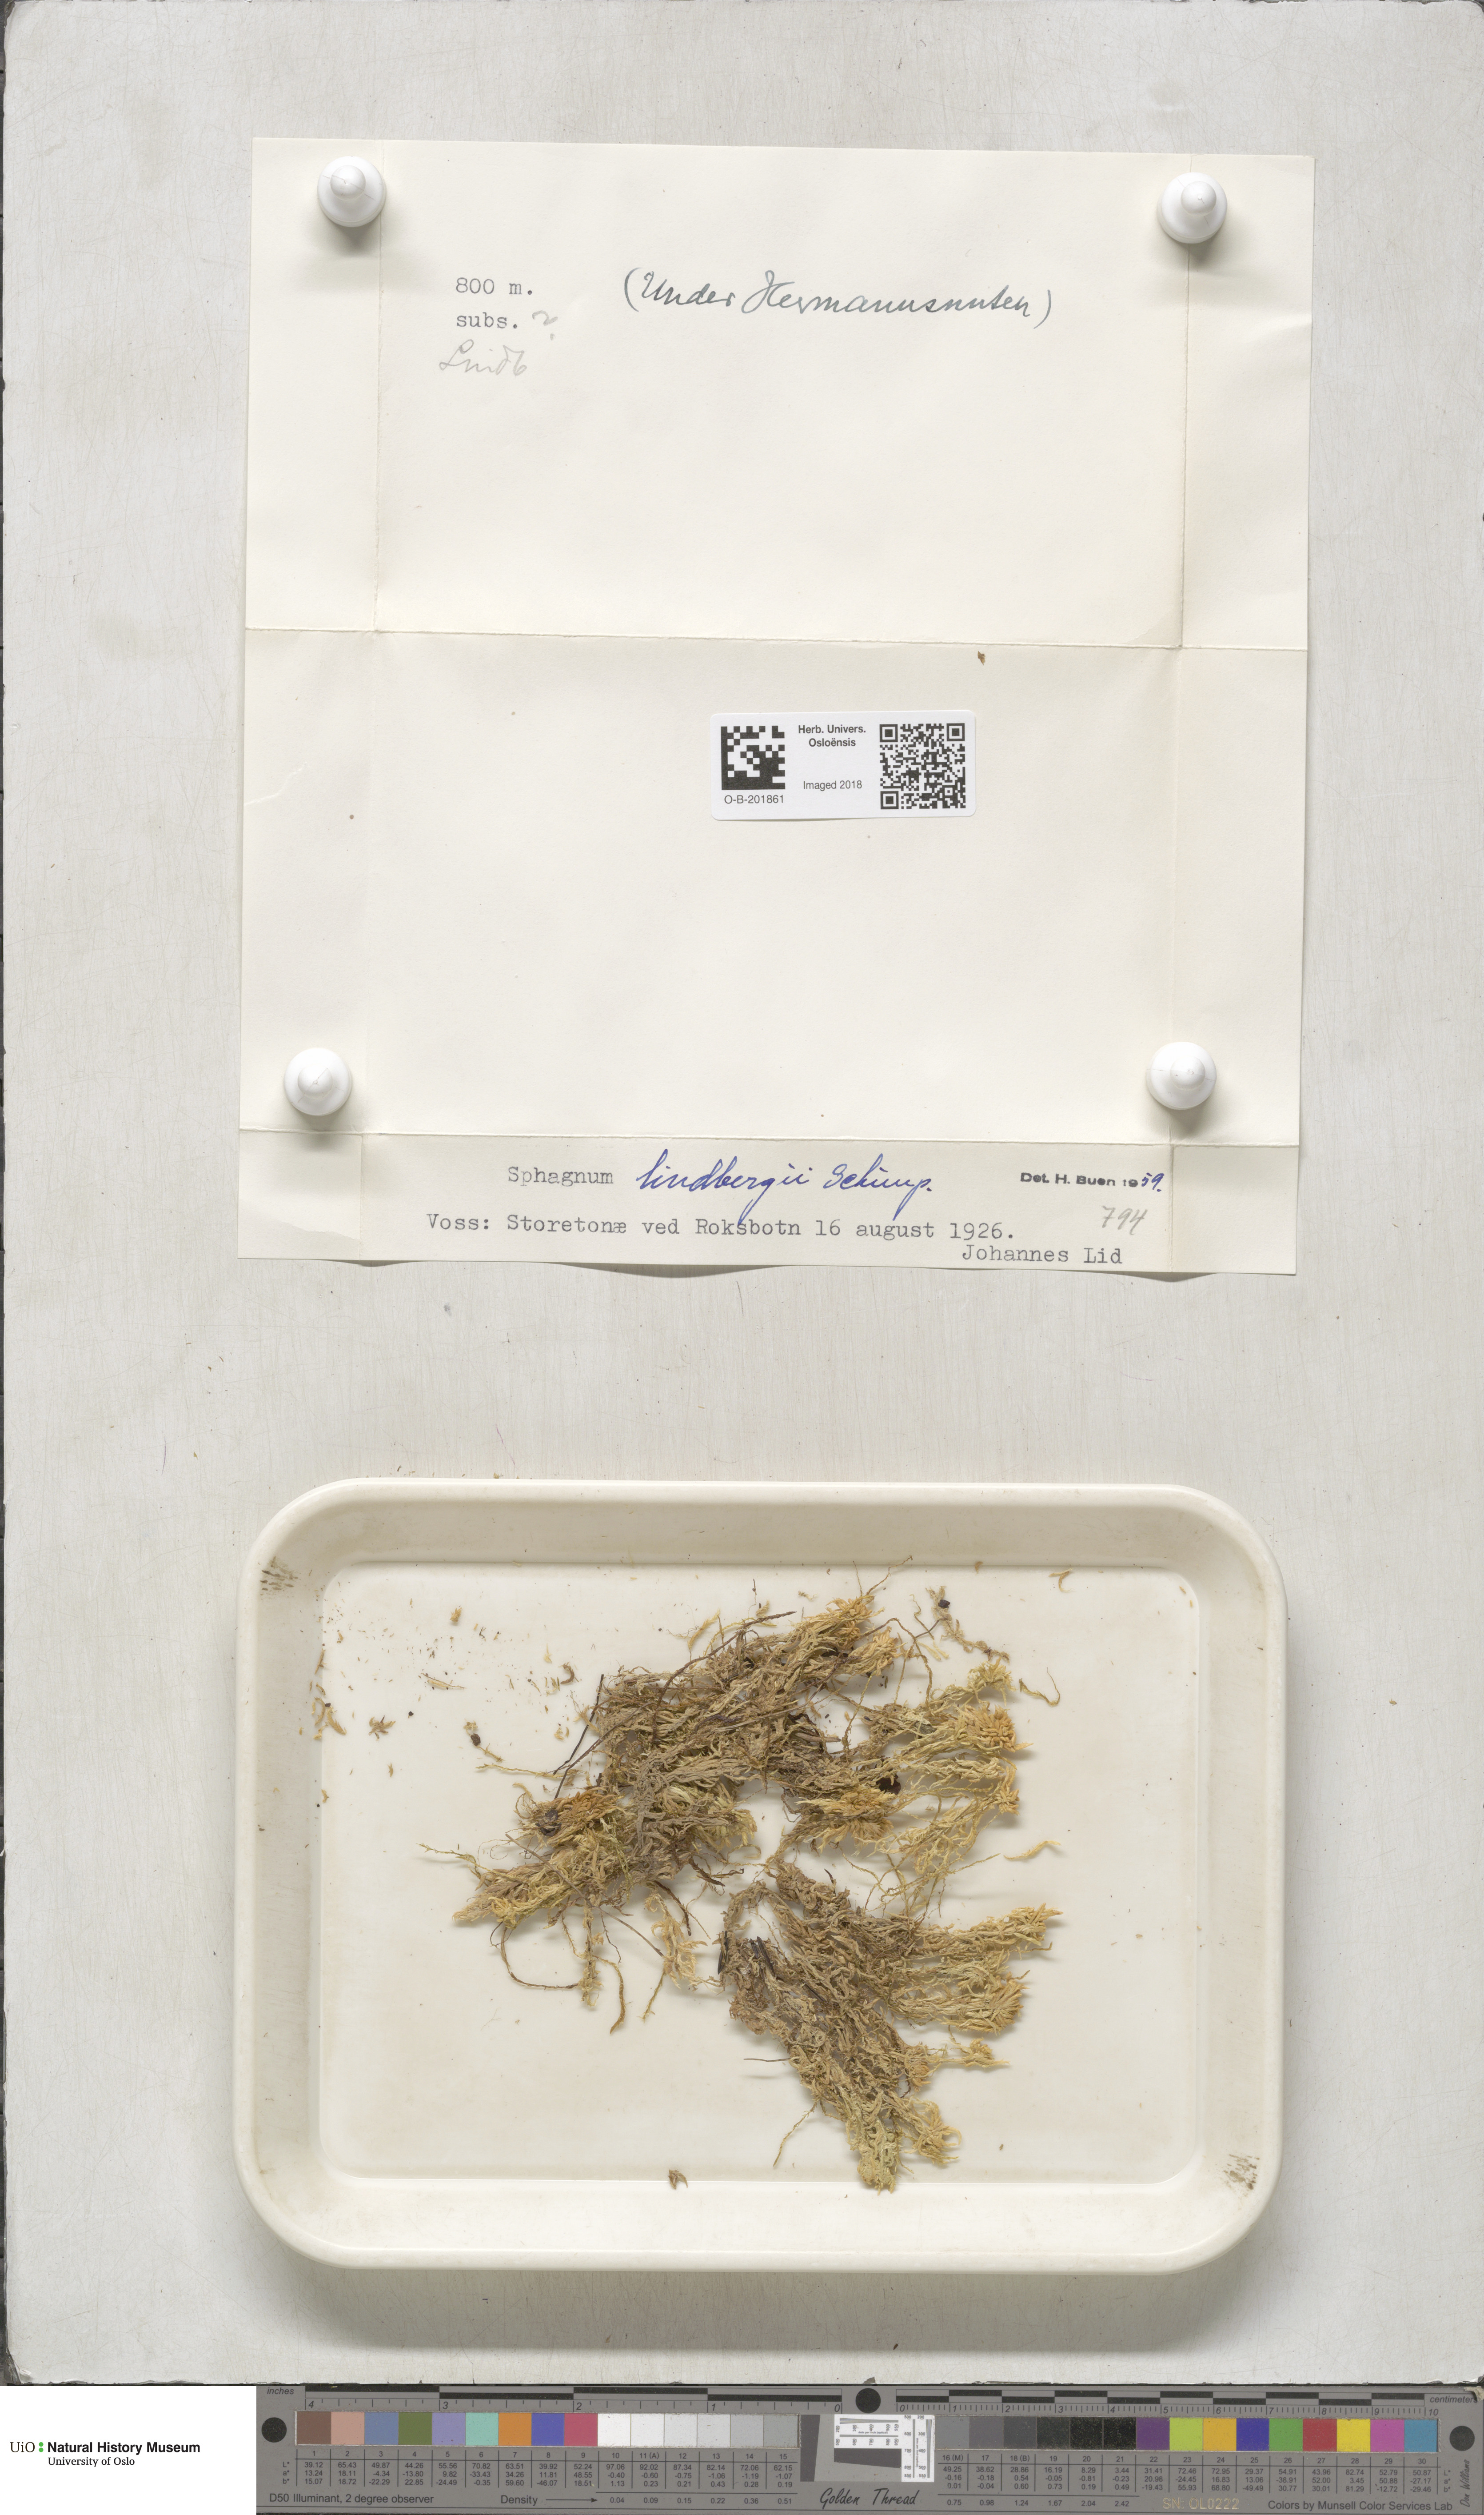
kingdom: Plantae
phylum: Bryophyta
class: Sphagnopsida
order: Sphagnales
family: Sphagnaceae
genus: Sphagnum
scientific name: Sphagnum lindbergii
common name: Lindberg's peat moss
